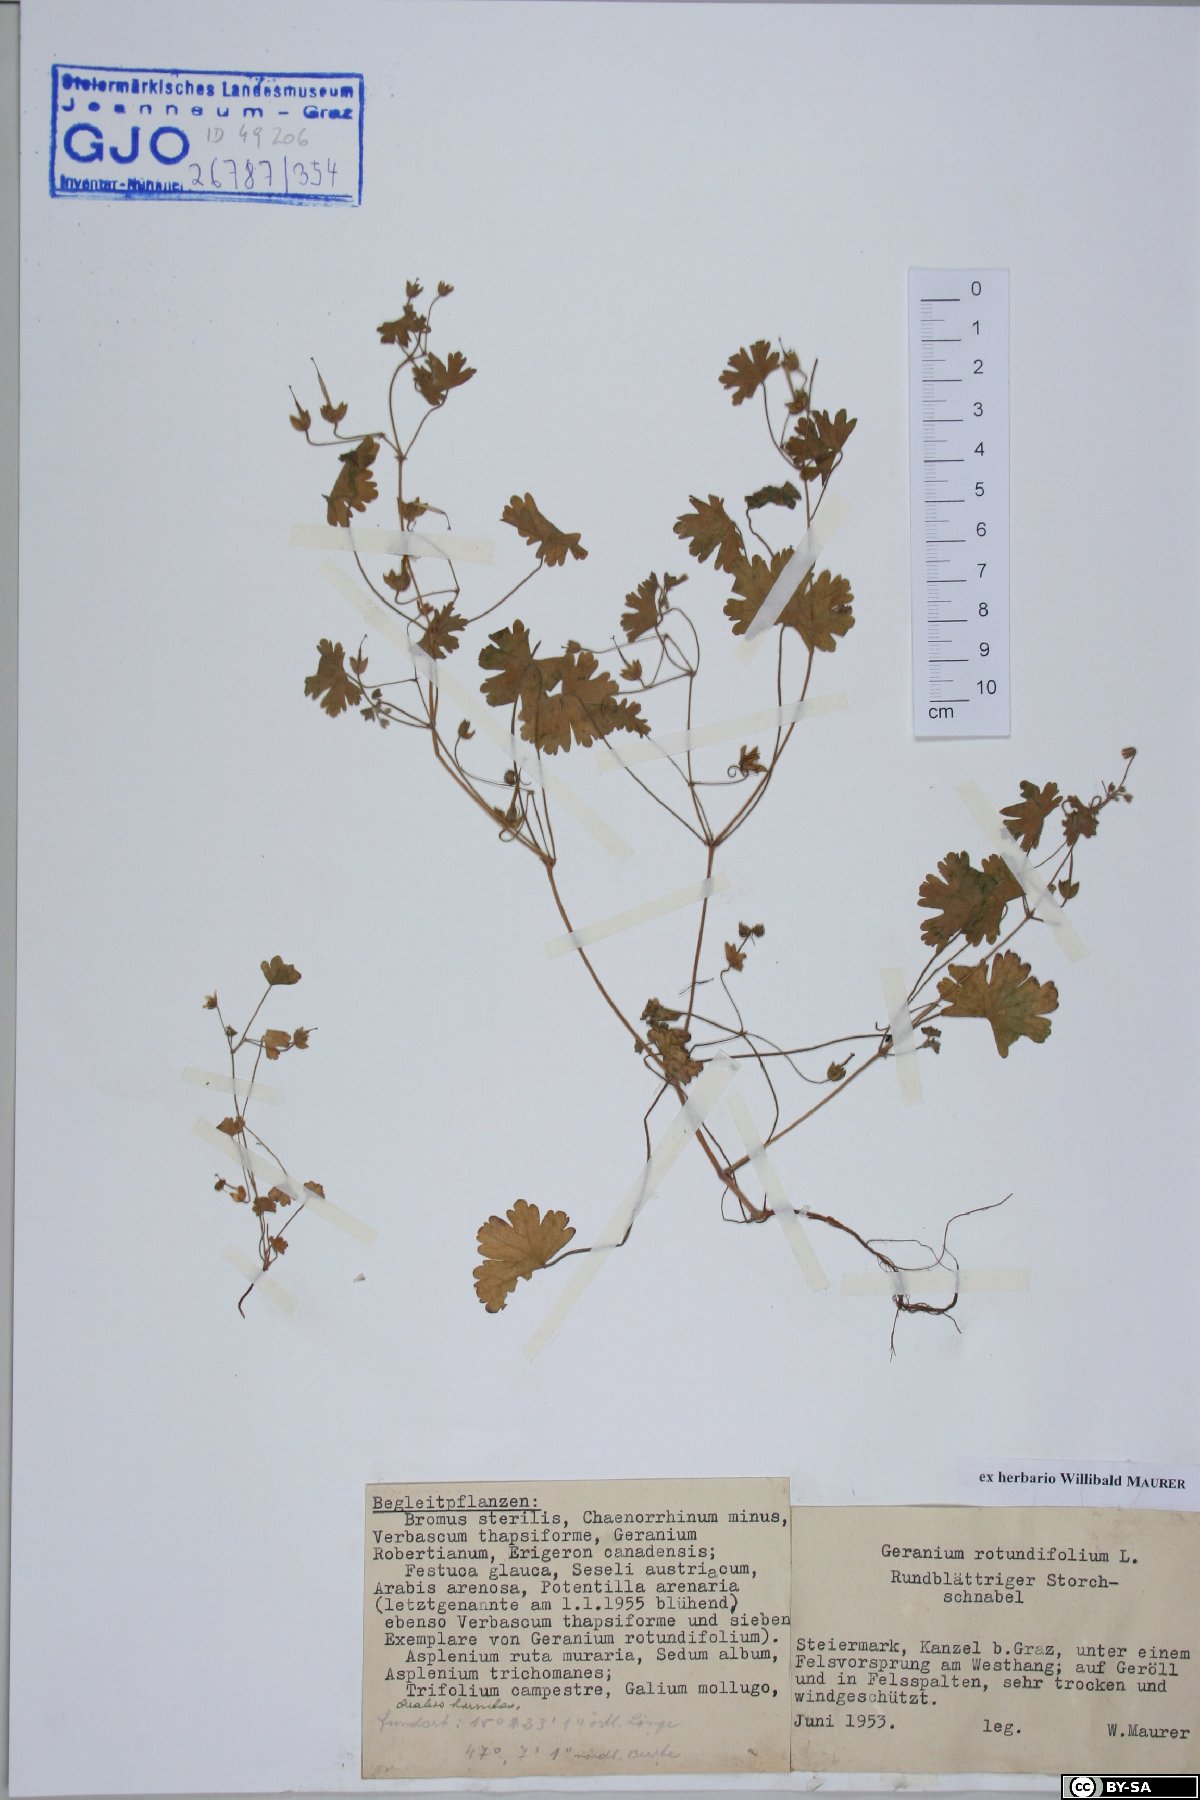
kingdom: Plantae
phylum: Tracheophyta
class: Magnoliopsida
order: Geraniales
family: Geraniaceae
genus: Geranium
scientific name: Geranium rotundifolium
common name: Round-leaved crane's-bill
